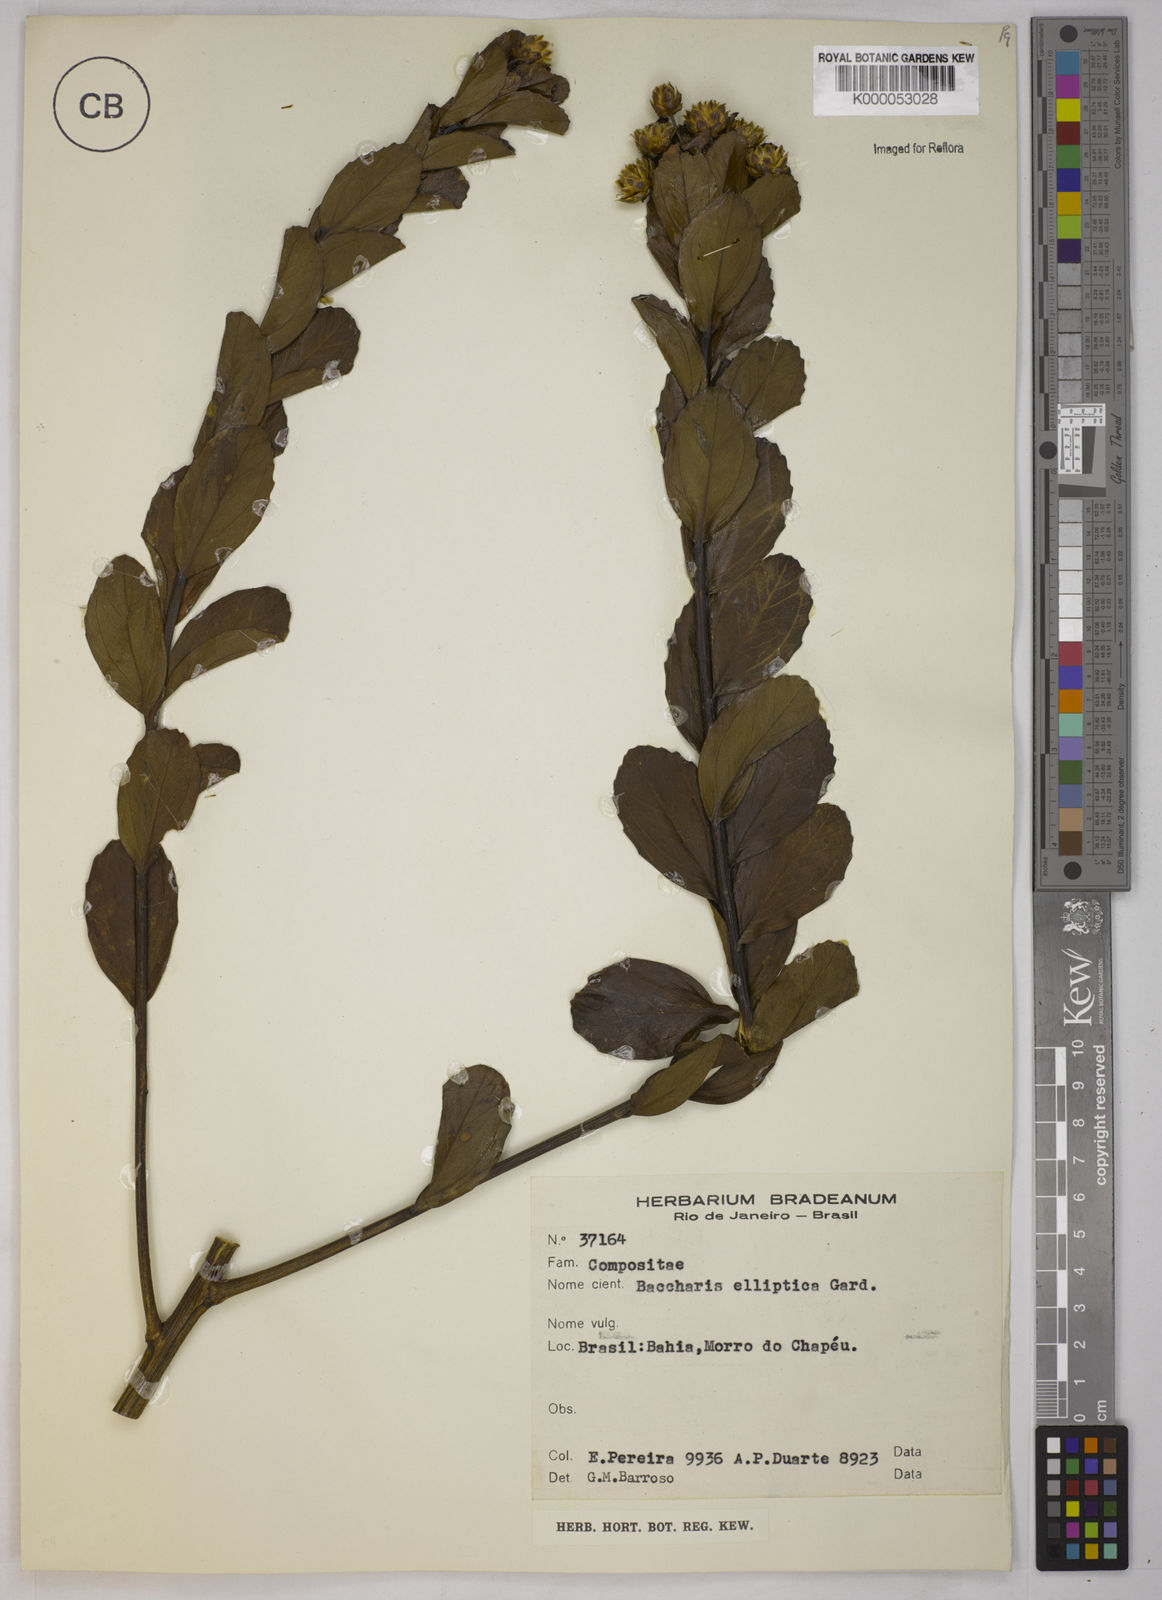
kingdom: Plantae
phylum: Tracheophyta
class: Magnoliopsida
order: Asterales
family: Asteraceae
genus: Baccharis
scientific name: Baccharis elliptica
